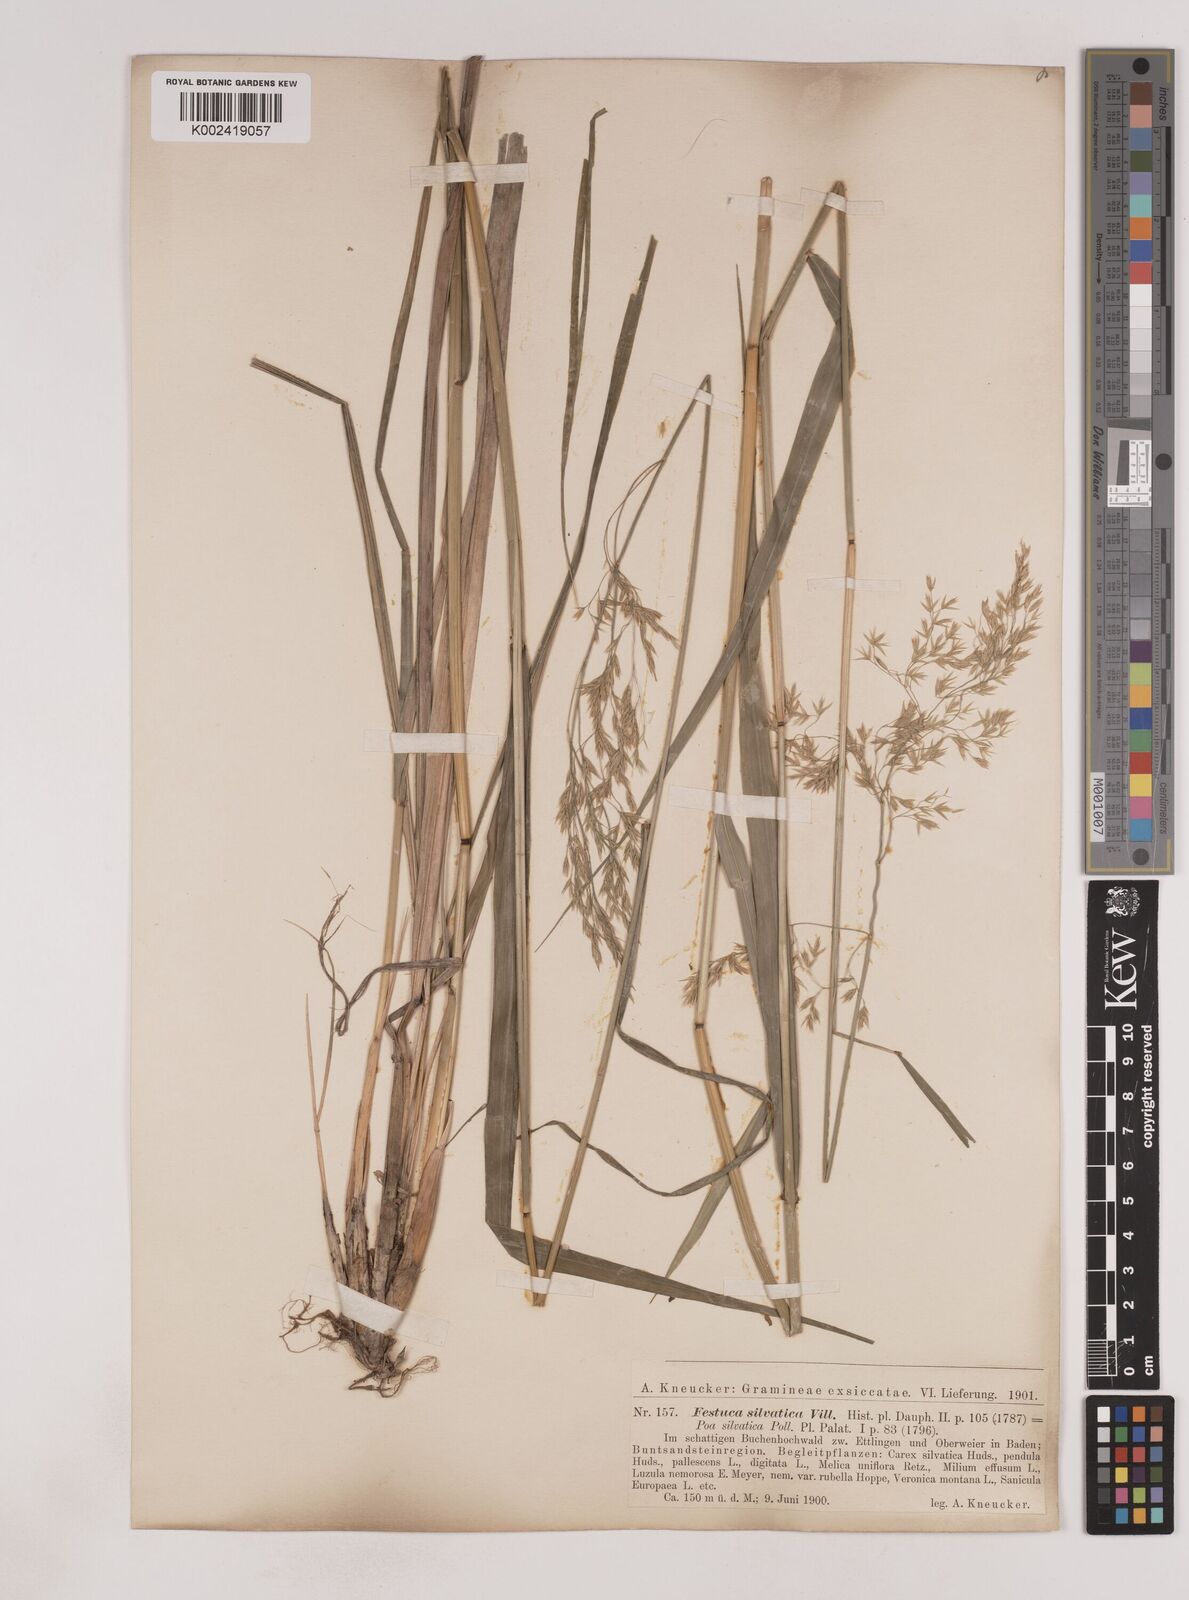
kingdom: Plantae
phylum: Tracheophyta
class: Liliopsida
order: Poales
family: Poaceae
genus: Festuca
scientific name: Festuca drymeja
